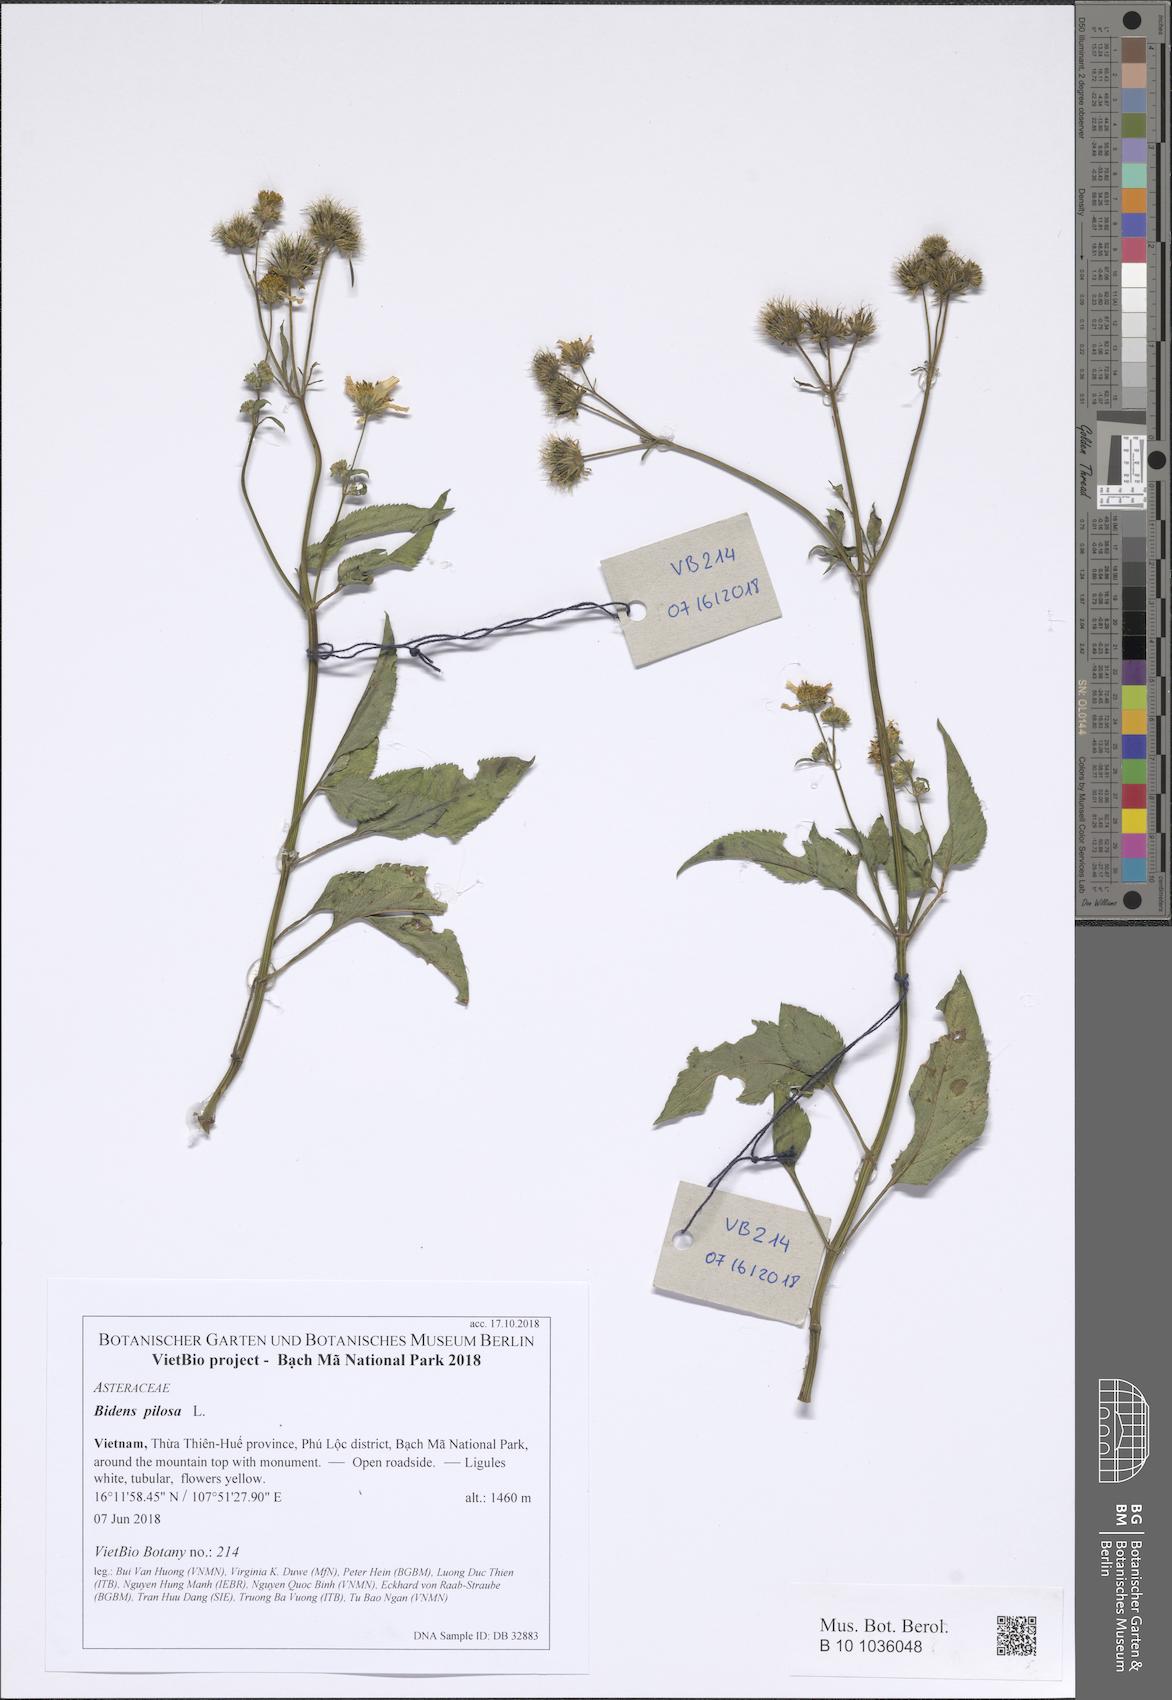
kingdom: Plantae
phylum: Tracheophyta
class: Magnoliopsida
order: Asterales
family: Asteraceae
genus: Bidens
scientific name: Bidens pilosa
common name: Black-jack
